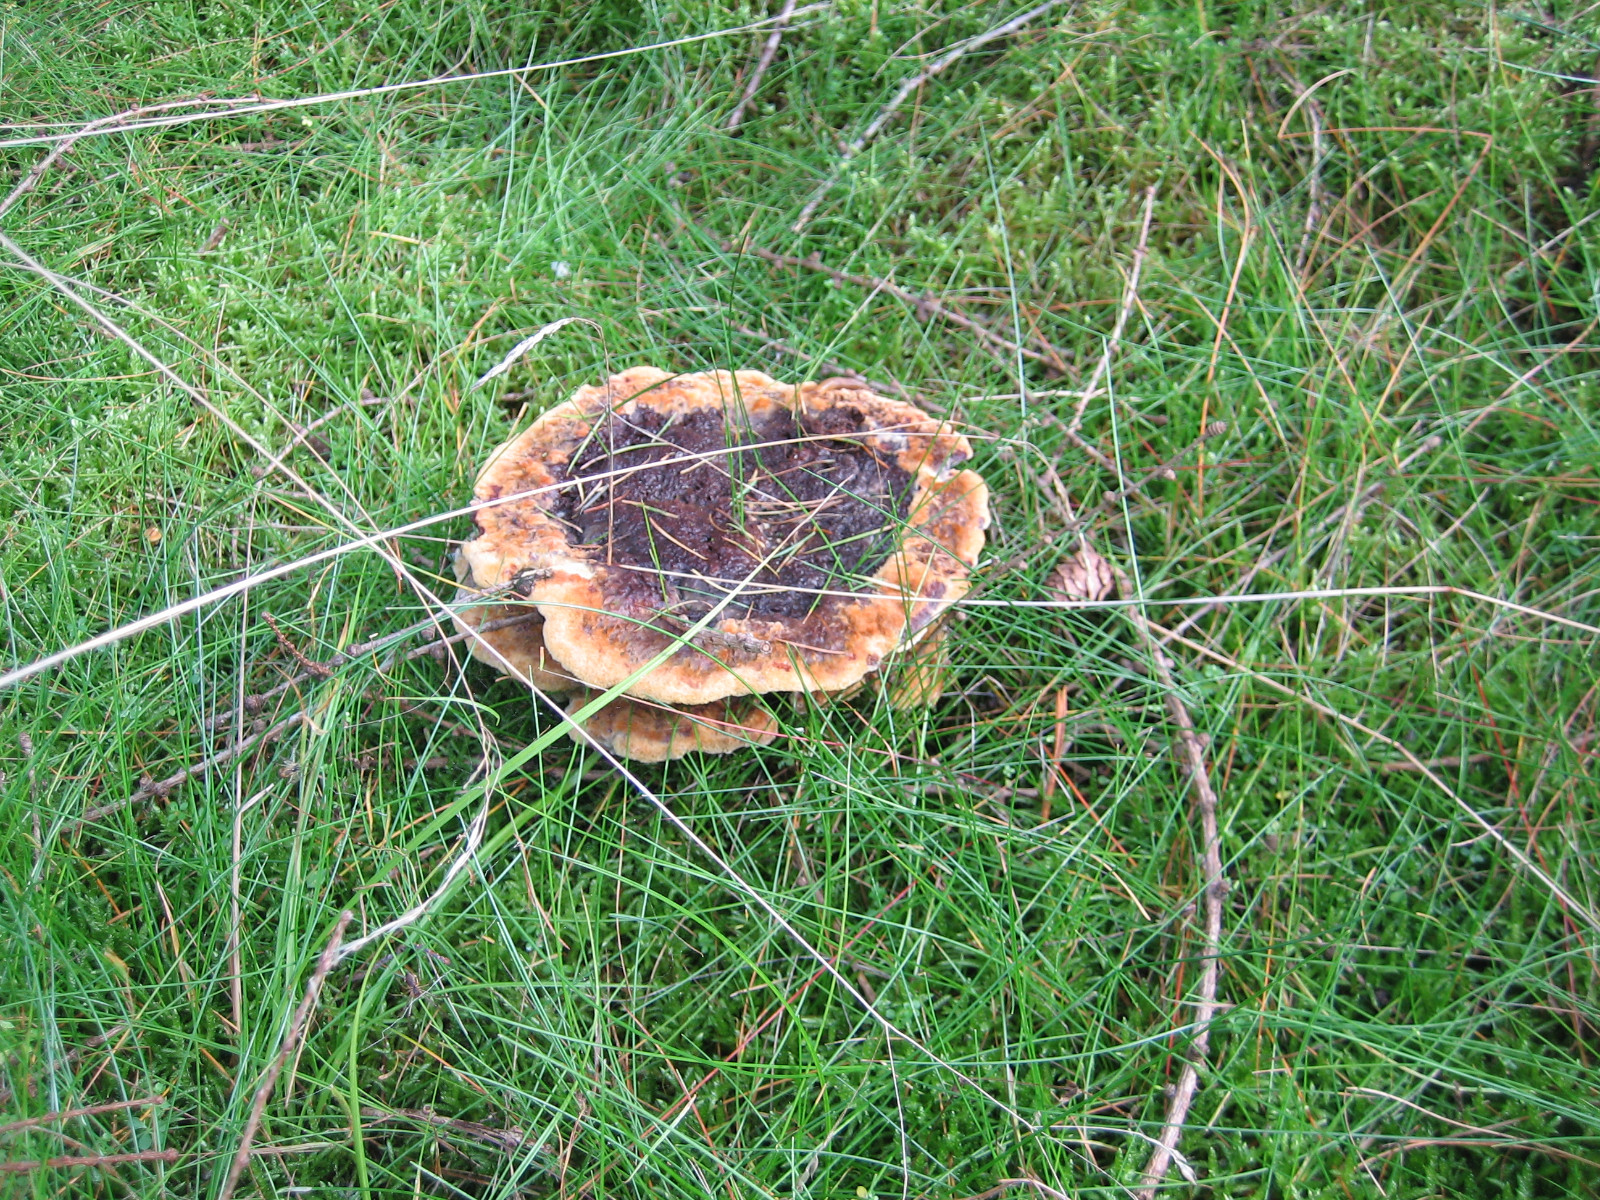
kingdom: Fungi
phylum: Basidiomycota
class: Agaricomycetes
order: Polyporales
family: Laetiporaceae
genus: Phaeolus
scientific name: Phaeolus schweinitzii
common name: brunporesvamp
